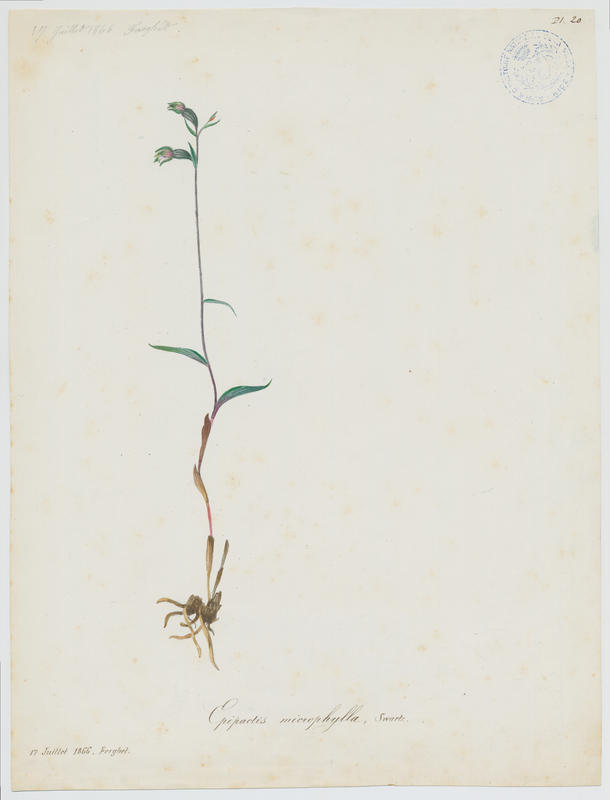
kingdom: Plantae
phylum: Tracheophyta
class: Liliopsida
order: Asparagales
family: Orchidaceae
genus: Epipactis
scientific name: Epipactis microphylla
